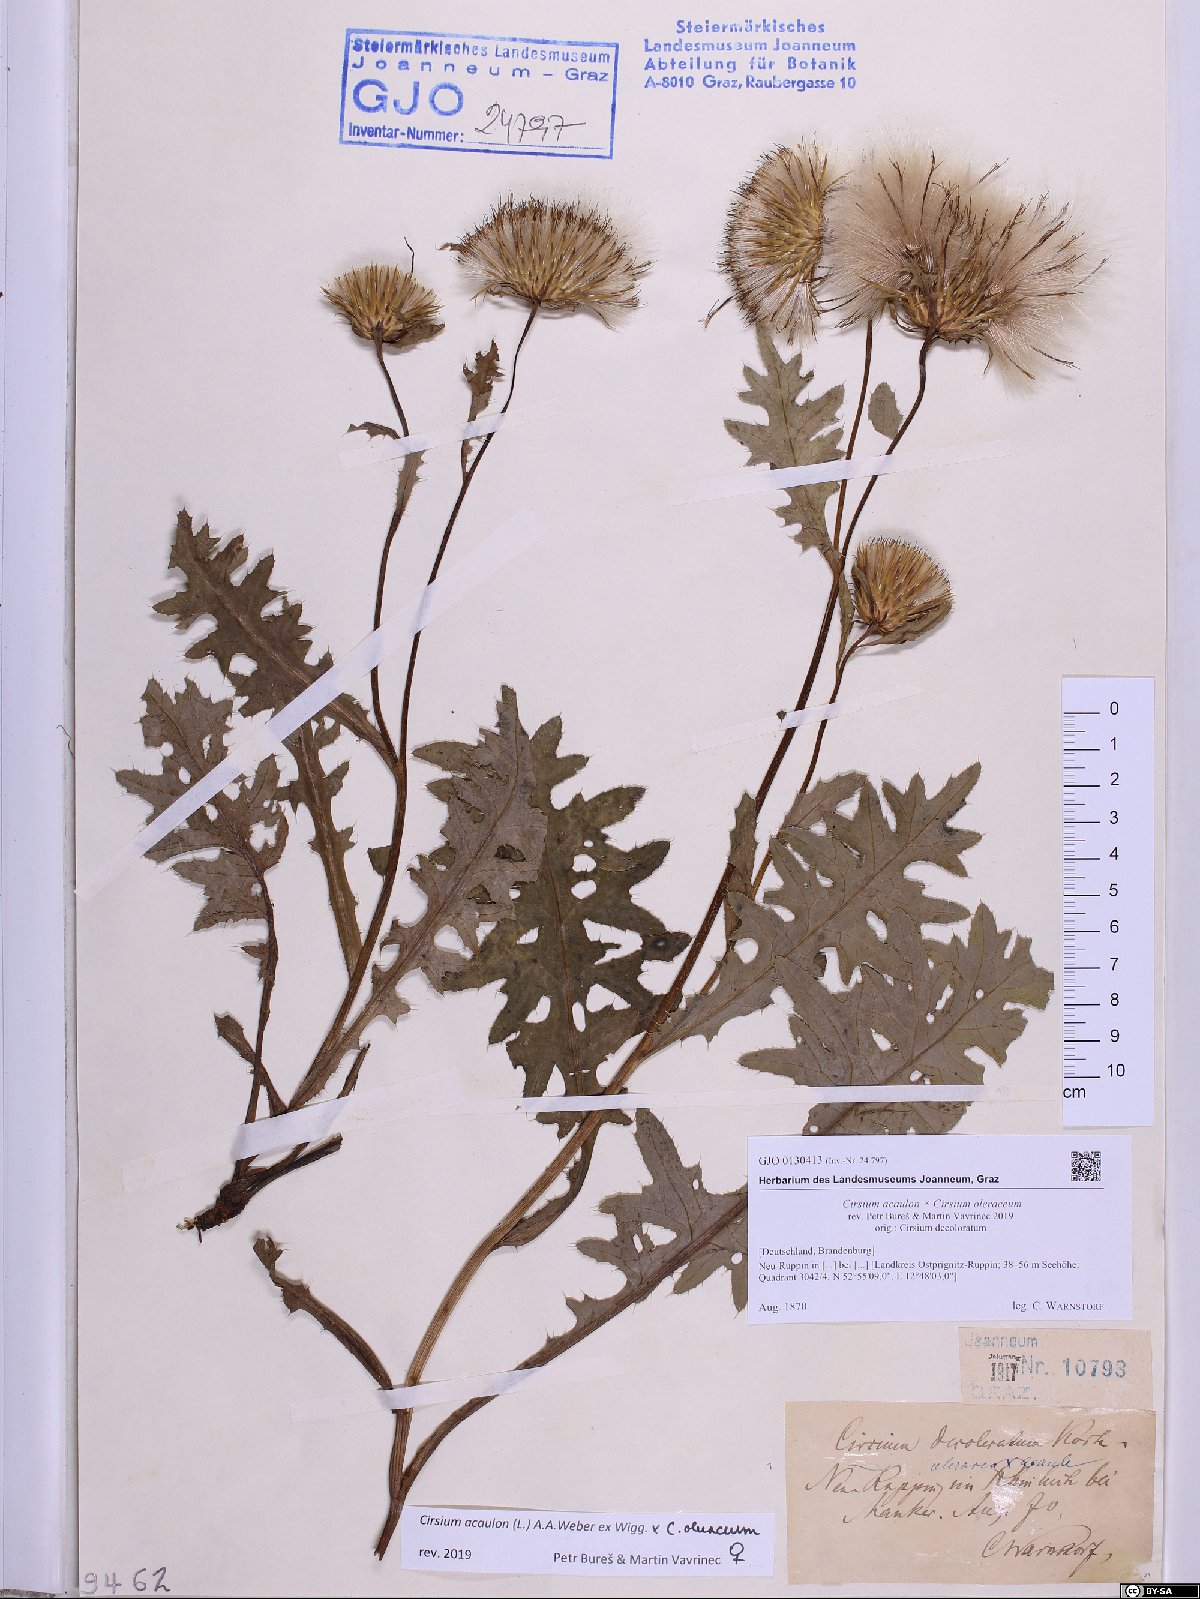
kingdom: Plantae
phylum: Tracheophyta
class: Magnoliopsida
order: Asterales
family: Asteraceae
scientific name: Asteraceae
